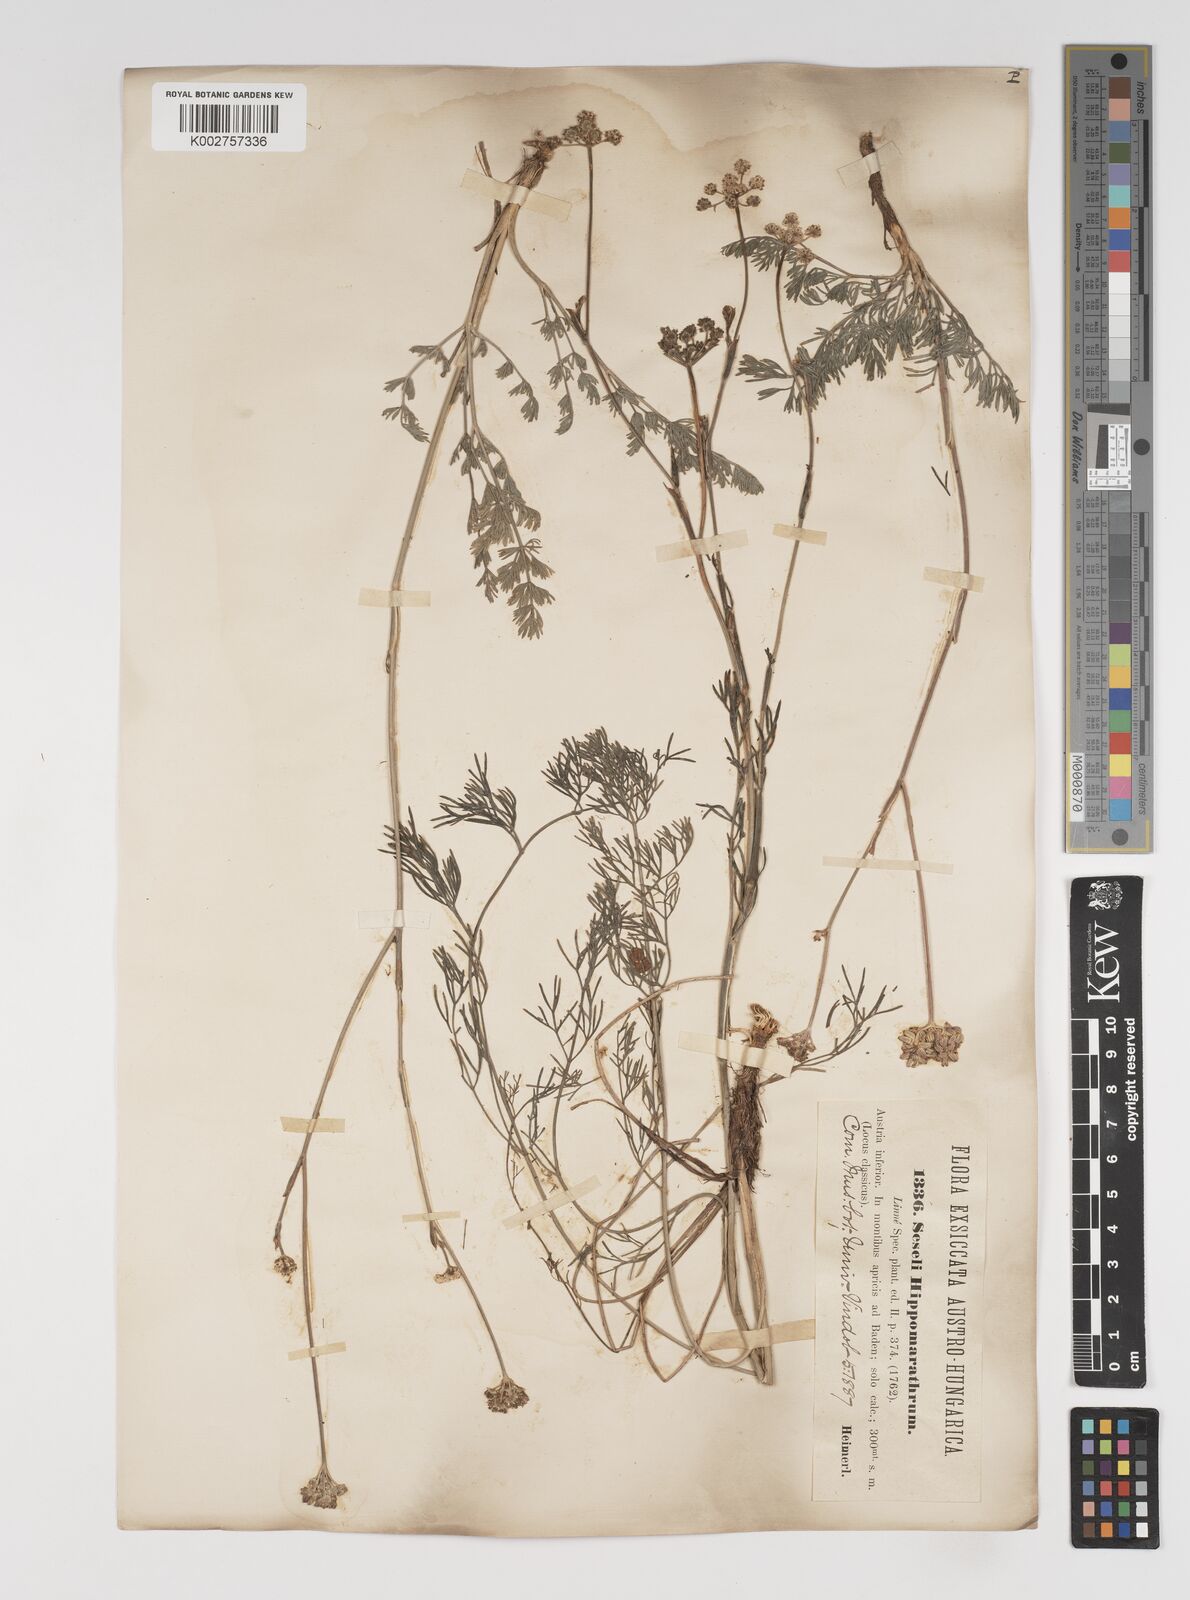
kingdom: Plantae
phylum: Tracheophyta
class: Magnoliopsida
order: Apiales
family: Apiaceae
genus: Hippomarathrum
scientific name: Hippomarathrum vulgare
